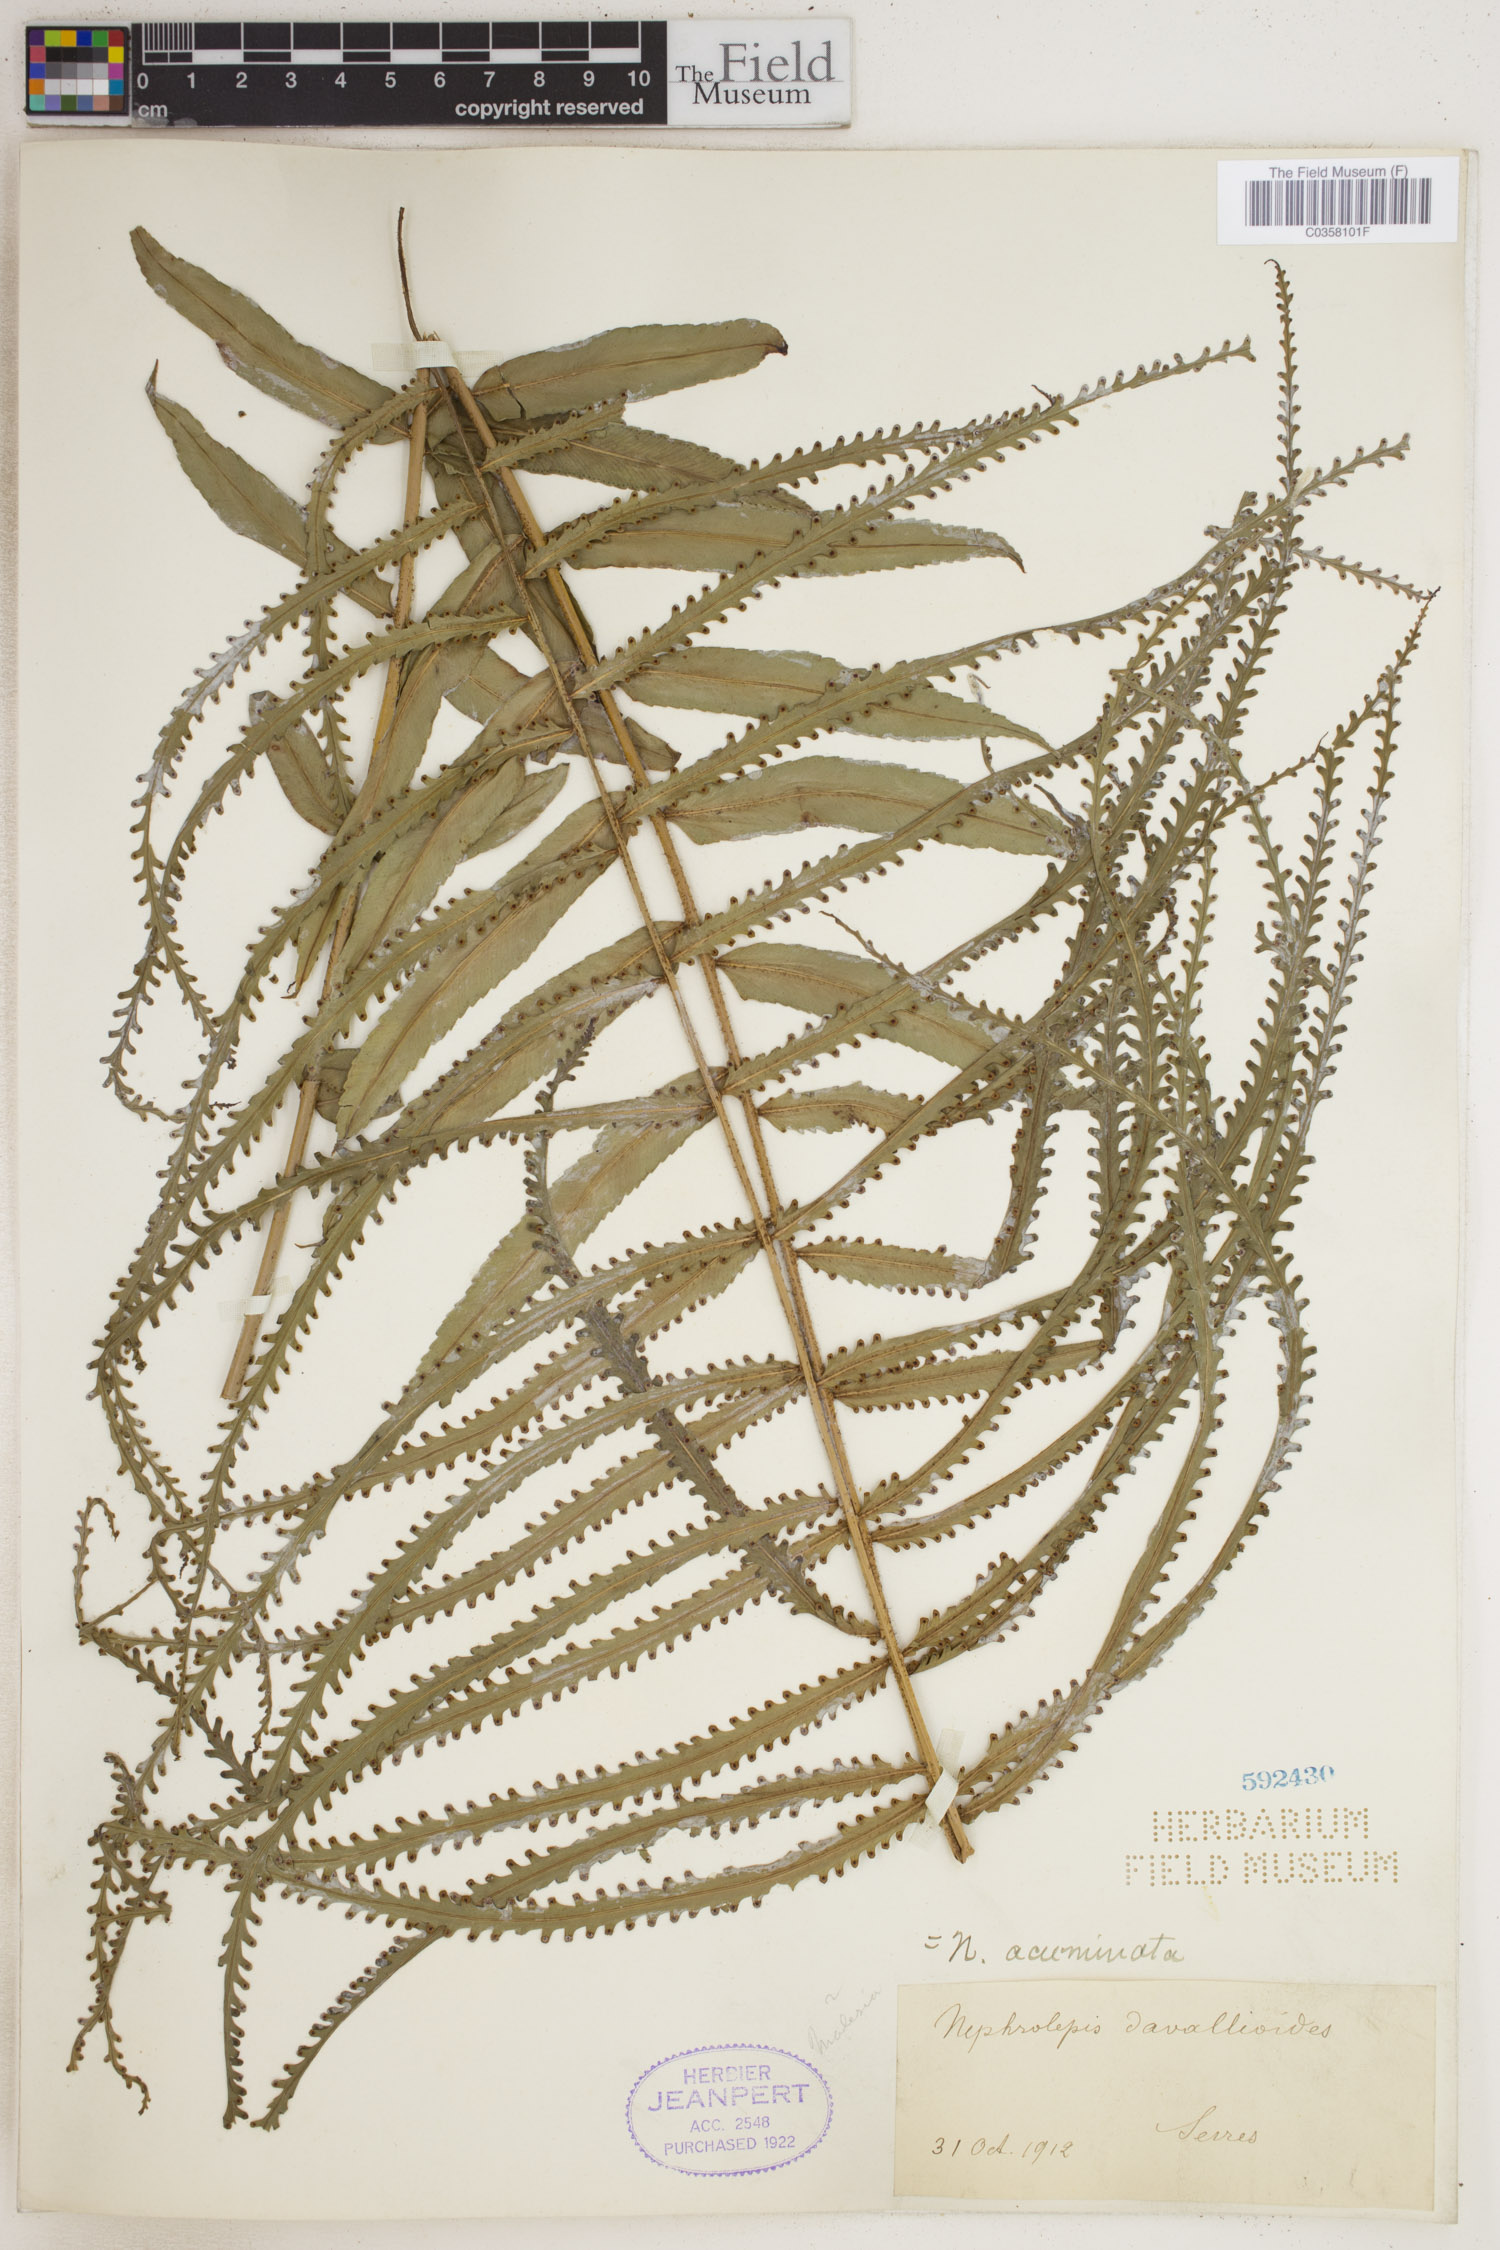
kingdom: Plantae
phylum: Tracheophyta
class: Polypodiopsida
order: Polypodiales
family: Nephrolepidaceae
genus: Nephrolepis
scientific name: Nephrolepis biserrata
